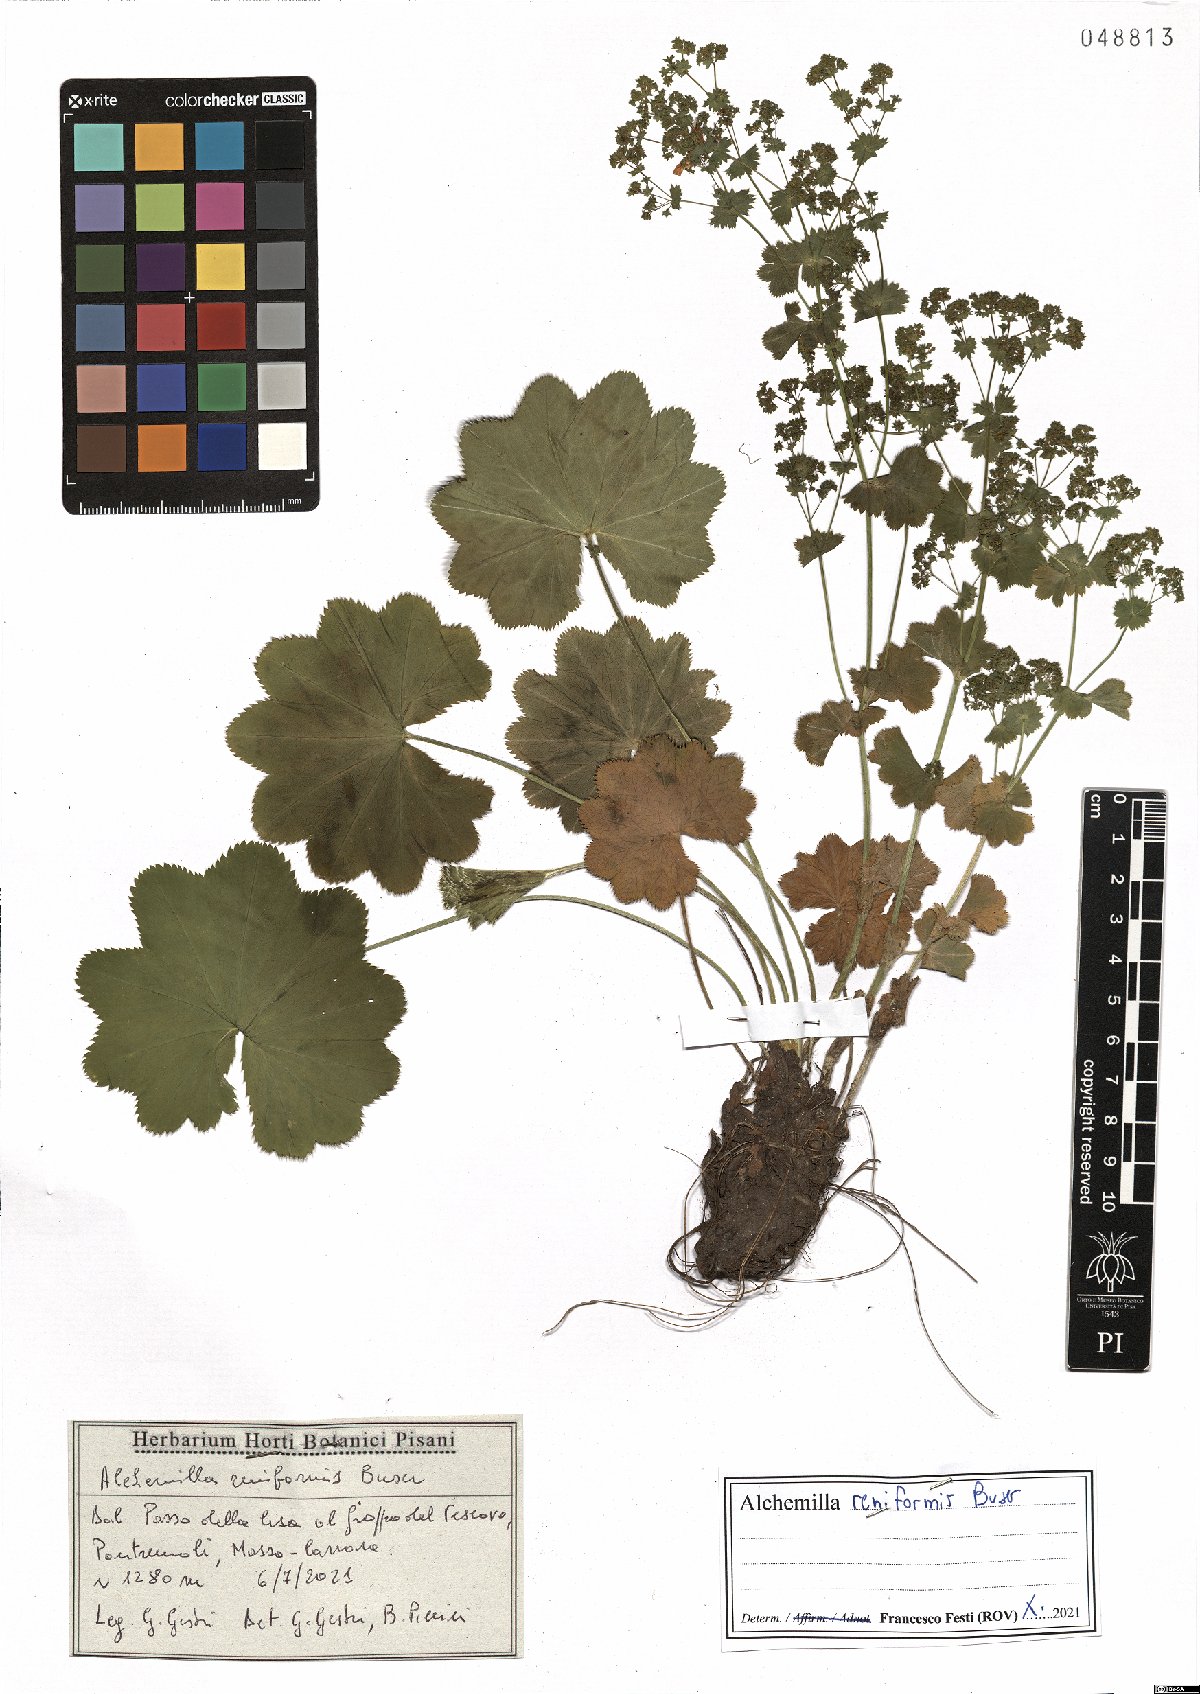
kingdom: Plantae
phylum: Tracheophyta
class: Magnoliopsida
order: Rosales
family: Rosaceae
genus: Alchemilla
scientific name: Alchemilla reniformis
